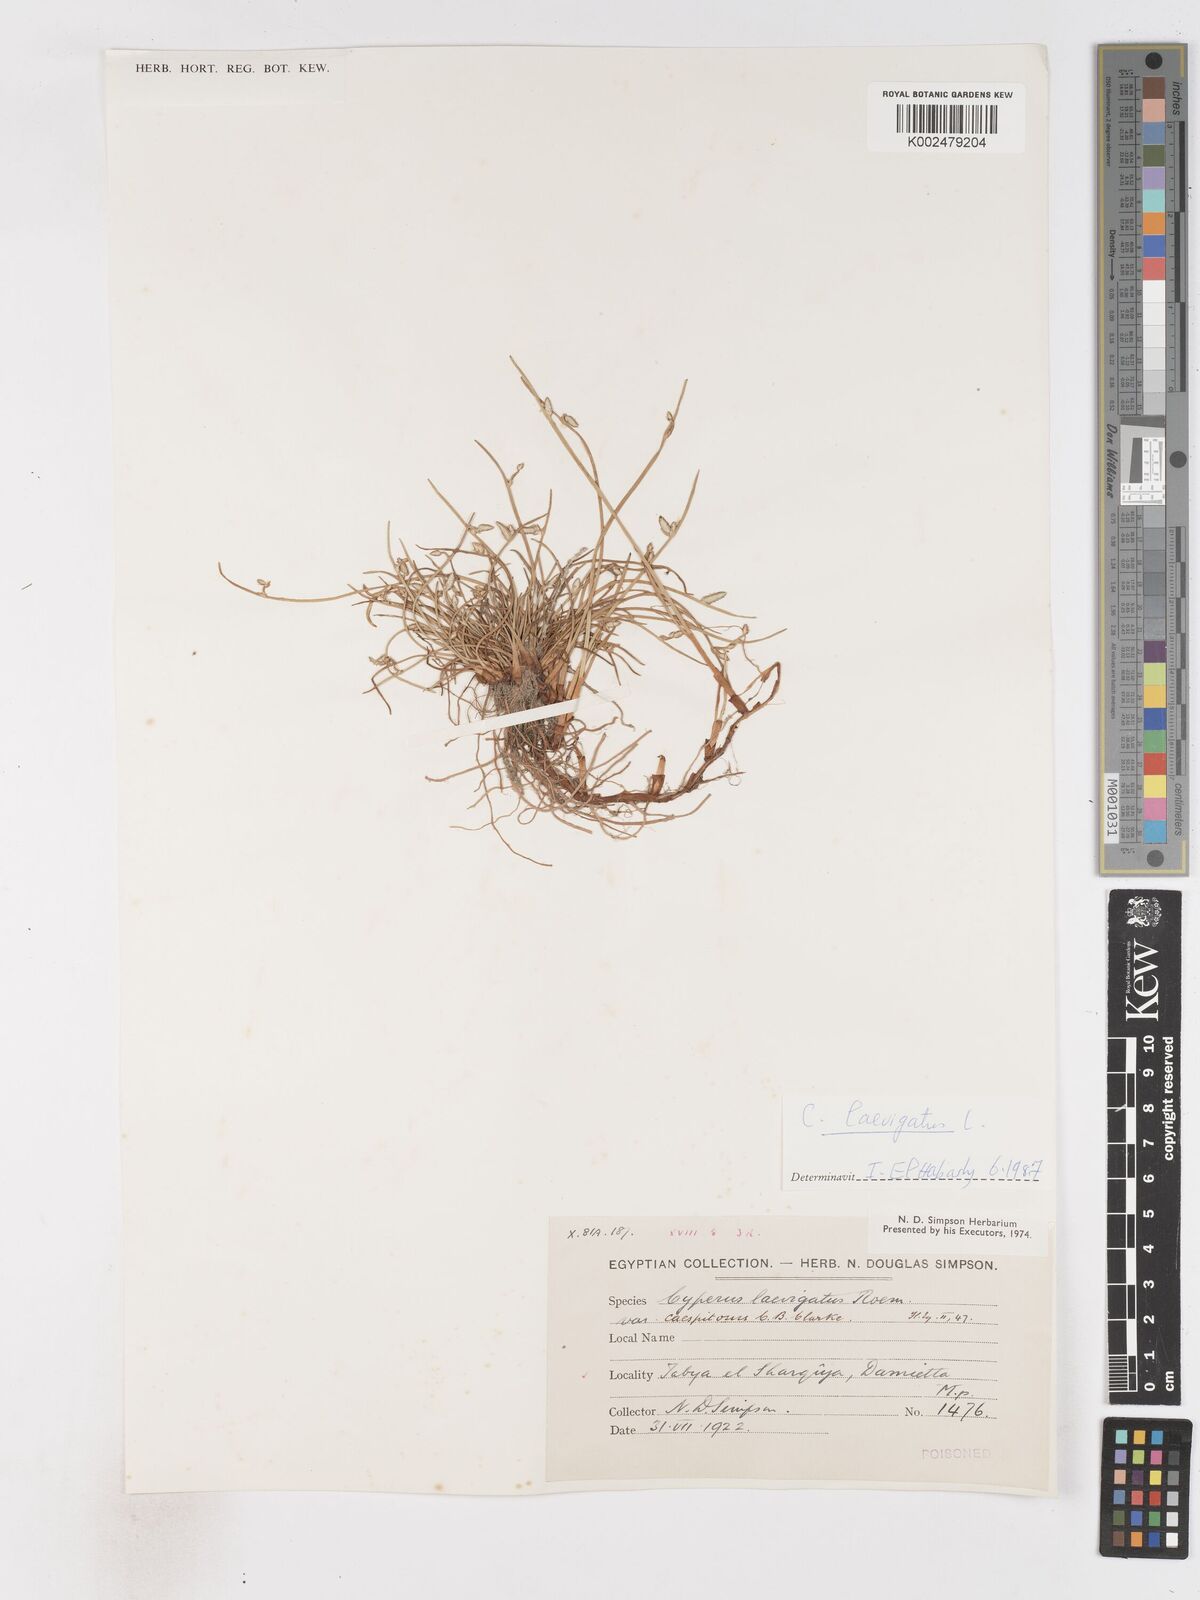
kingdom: Plantae
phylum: Tracheophyta
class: Liliopsida
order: Poales
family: Cyperaceae
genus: Cyperus
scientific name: Cyperus laevigatus
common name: Smooth flat sedge
